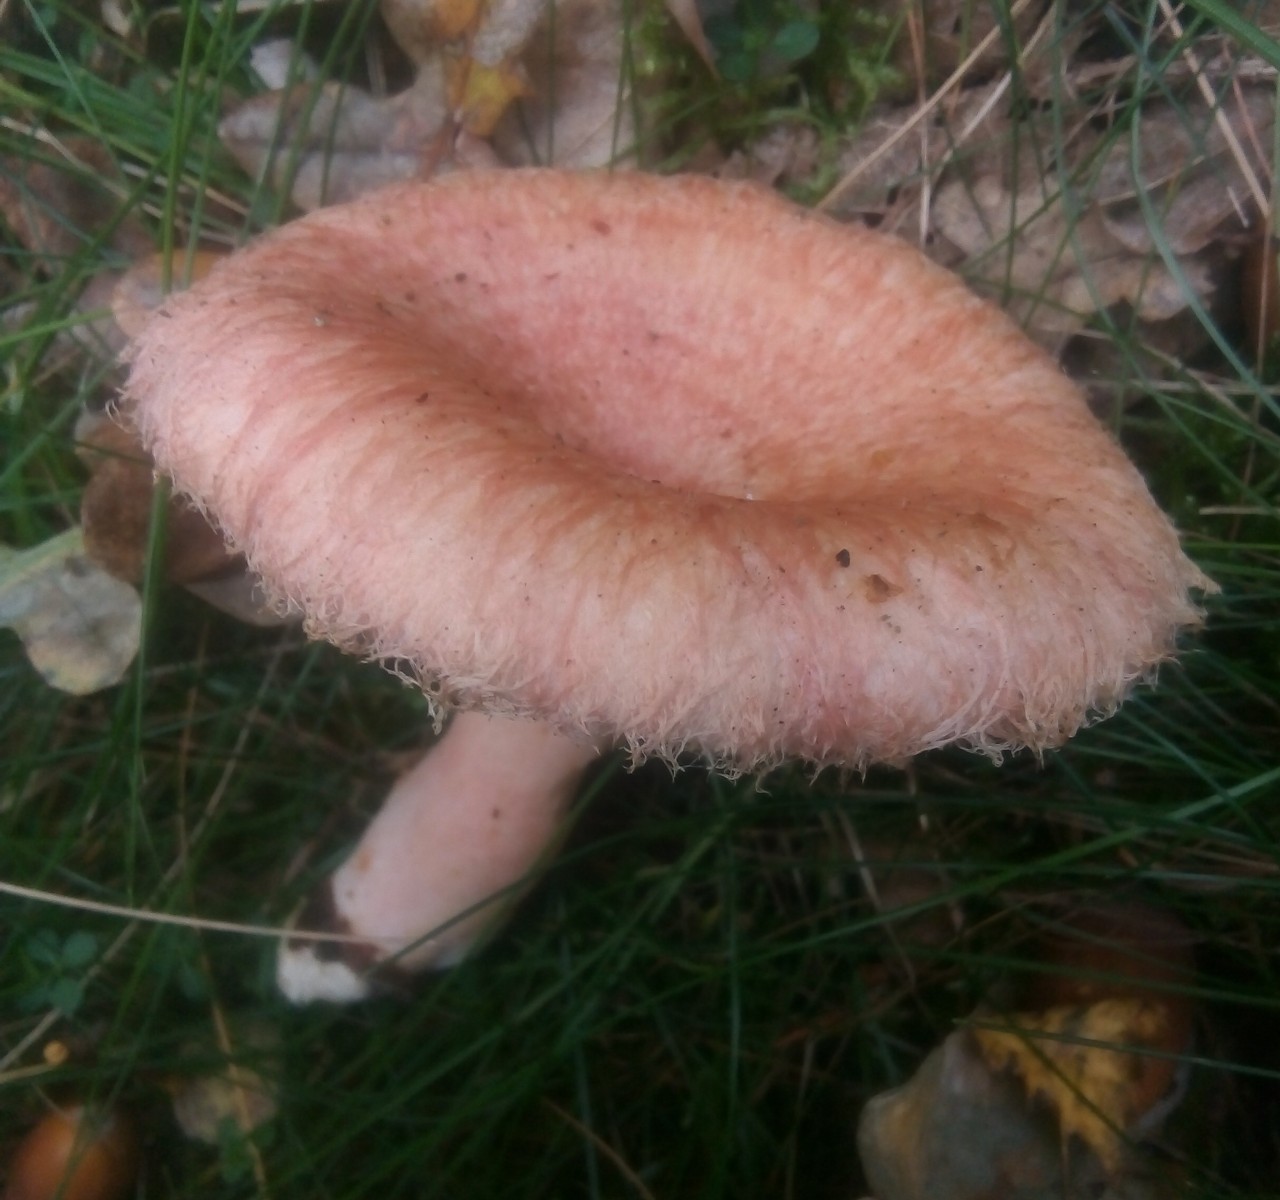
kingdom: Fungi
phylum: Basidiomycota
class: Agaricomycetes
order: Russulales
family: Russulaceae
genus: Lactarius
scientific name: Lactarius torminosus
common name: skægget mælkehat
